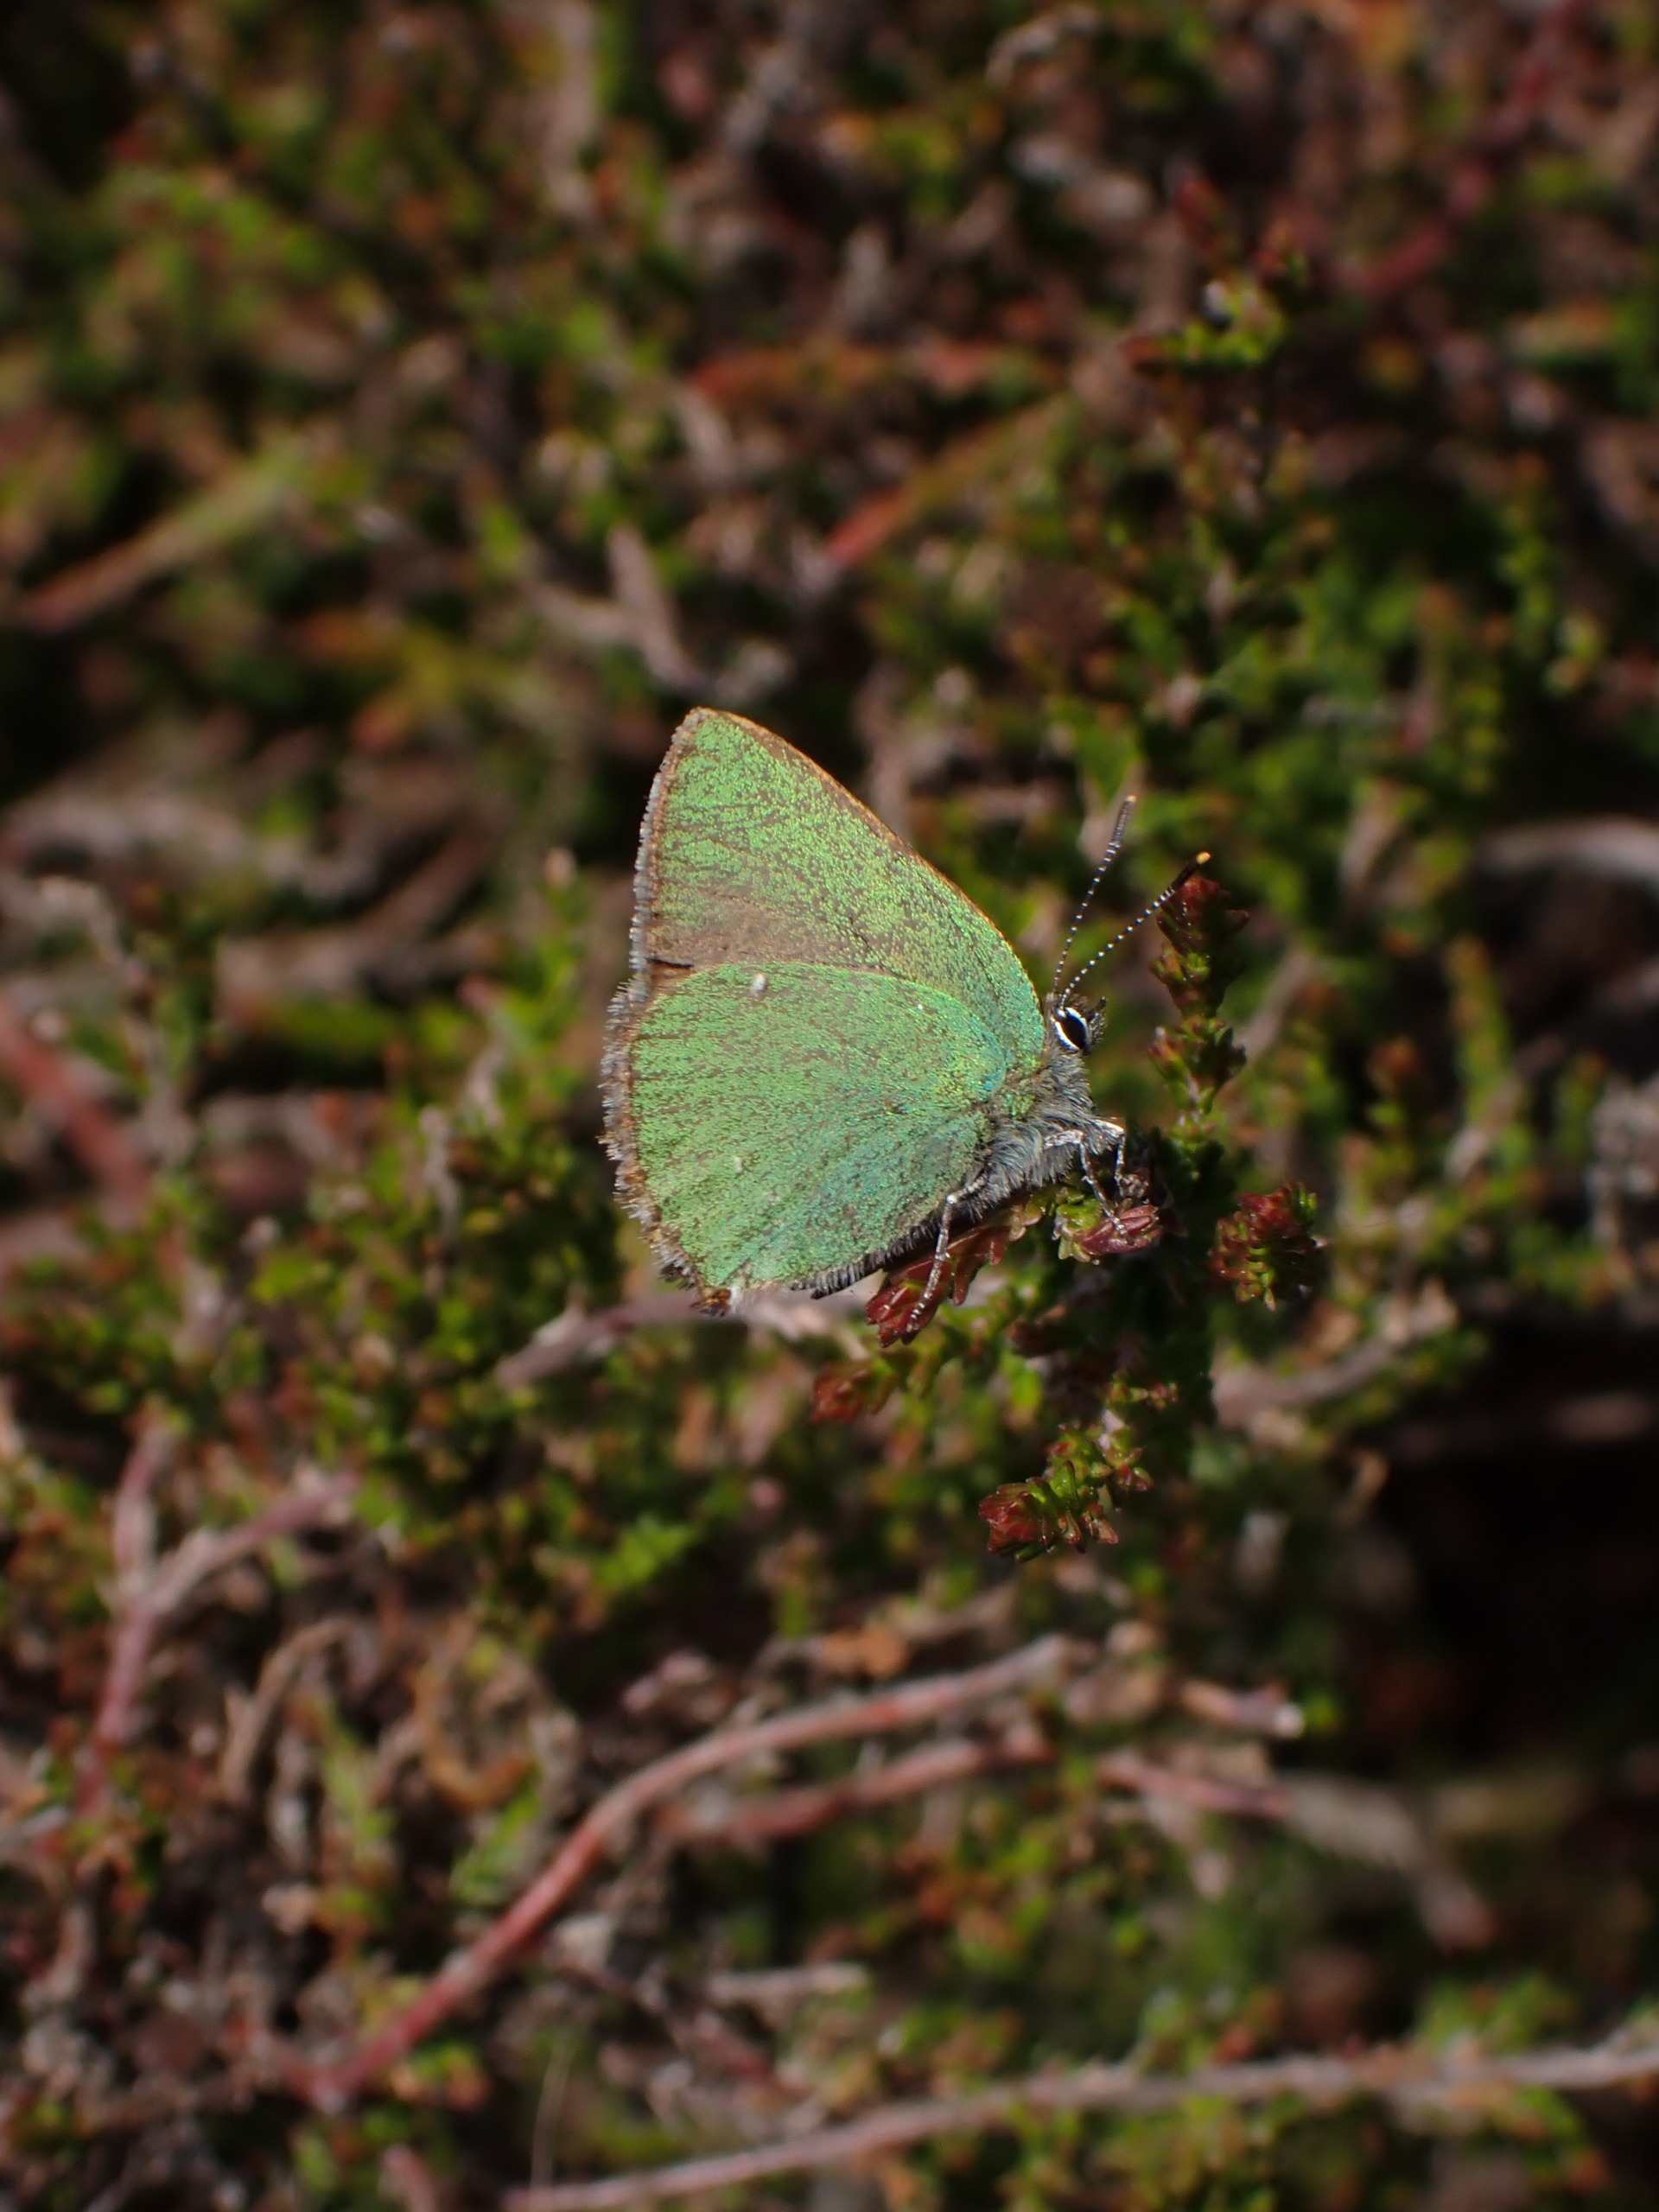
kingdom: Animalia
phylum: Arthropoda
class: Insecta
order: Lepidoptera
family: Lycaenidae
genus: Callophrys
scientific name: Callophrys rubi
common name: Grøn busksommerfugl
